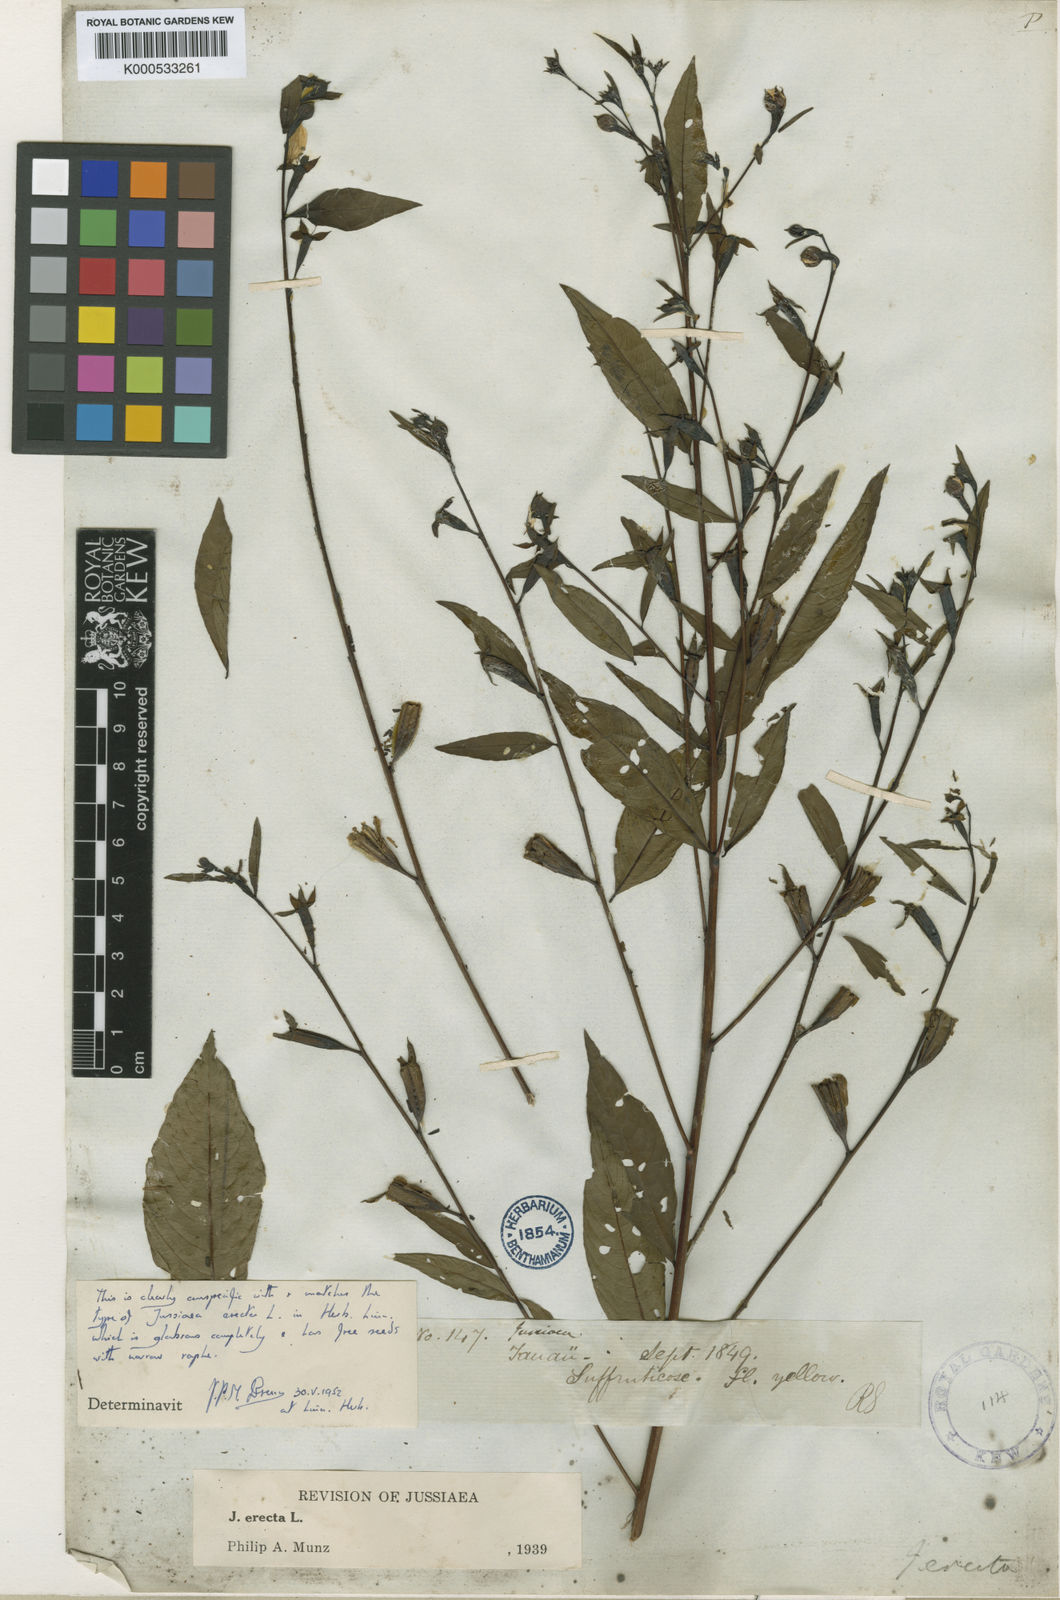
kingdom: Plantae
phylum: Tracheophyta
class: Magnoliopsida
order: Myrtales
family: Onagraceae
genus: Ludwigia
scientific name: Ludwigia nervosa
